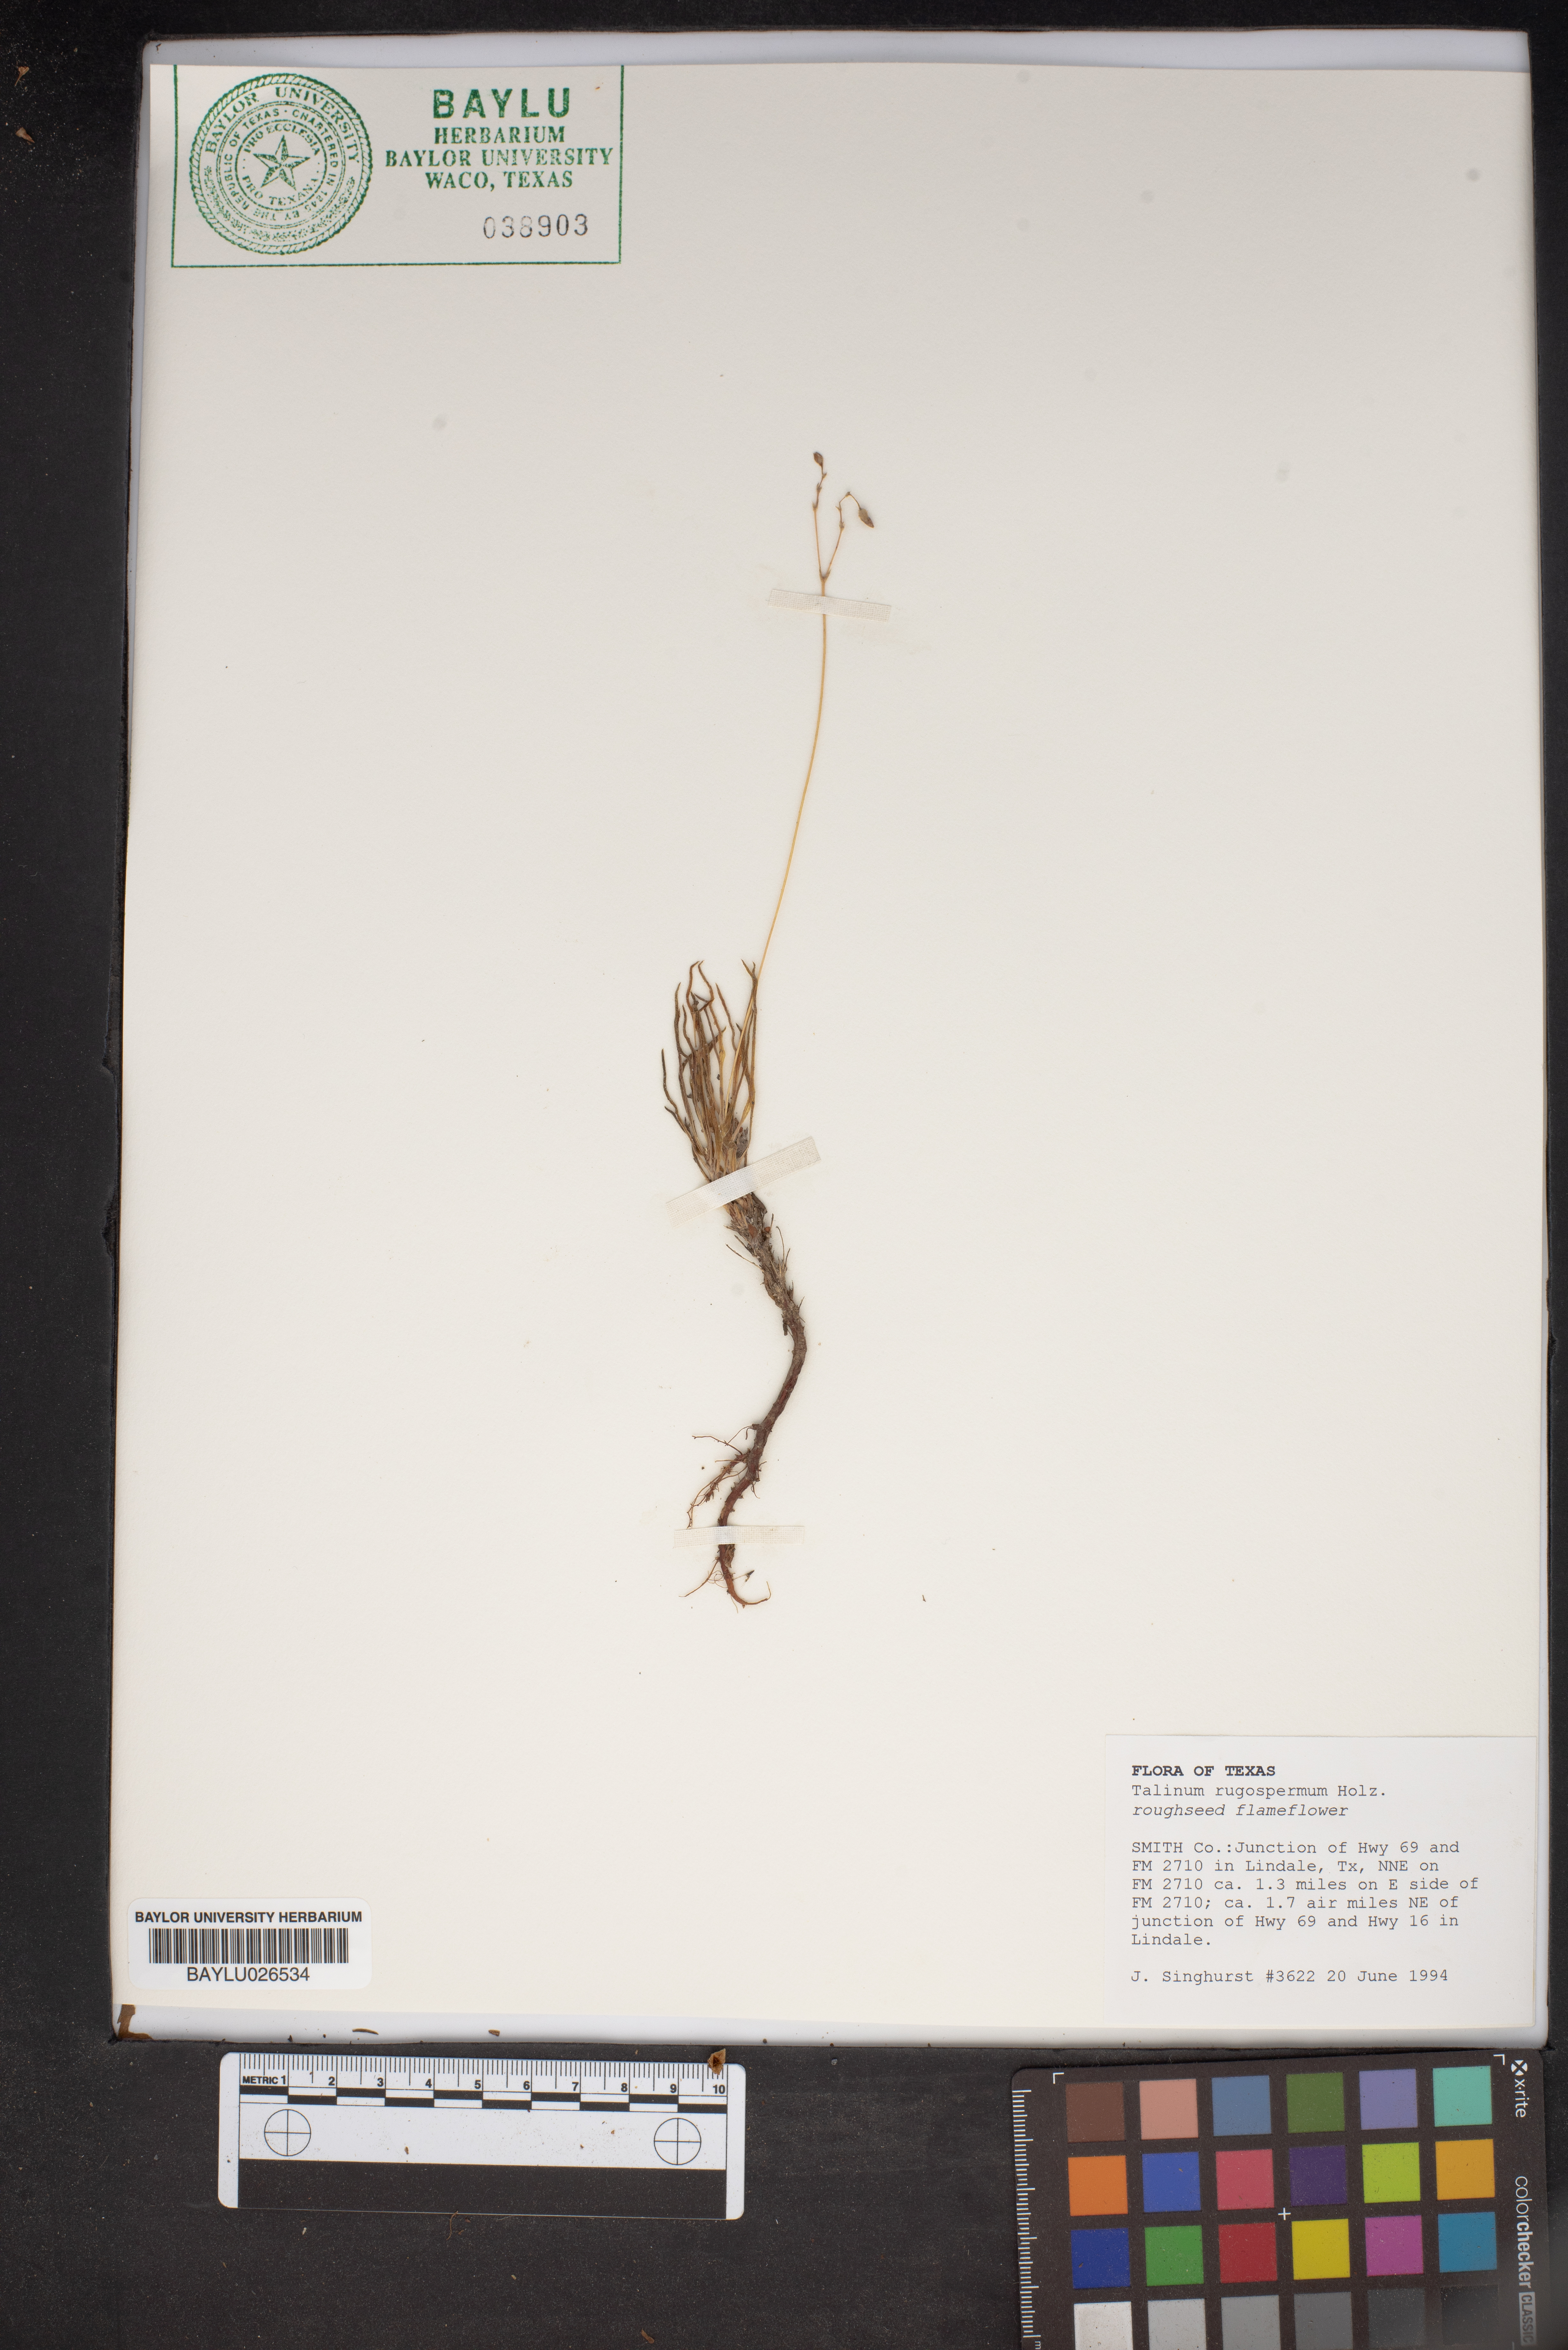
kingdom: Plantae
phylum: Tracheophyta
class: Magnoliopsida
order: Caryophyllales
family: Montiaceae
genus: Phemeranthus
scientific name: Phemeranthus rugospermus
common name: Prairie fameflower
